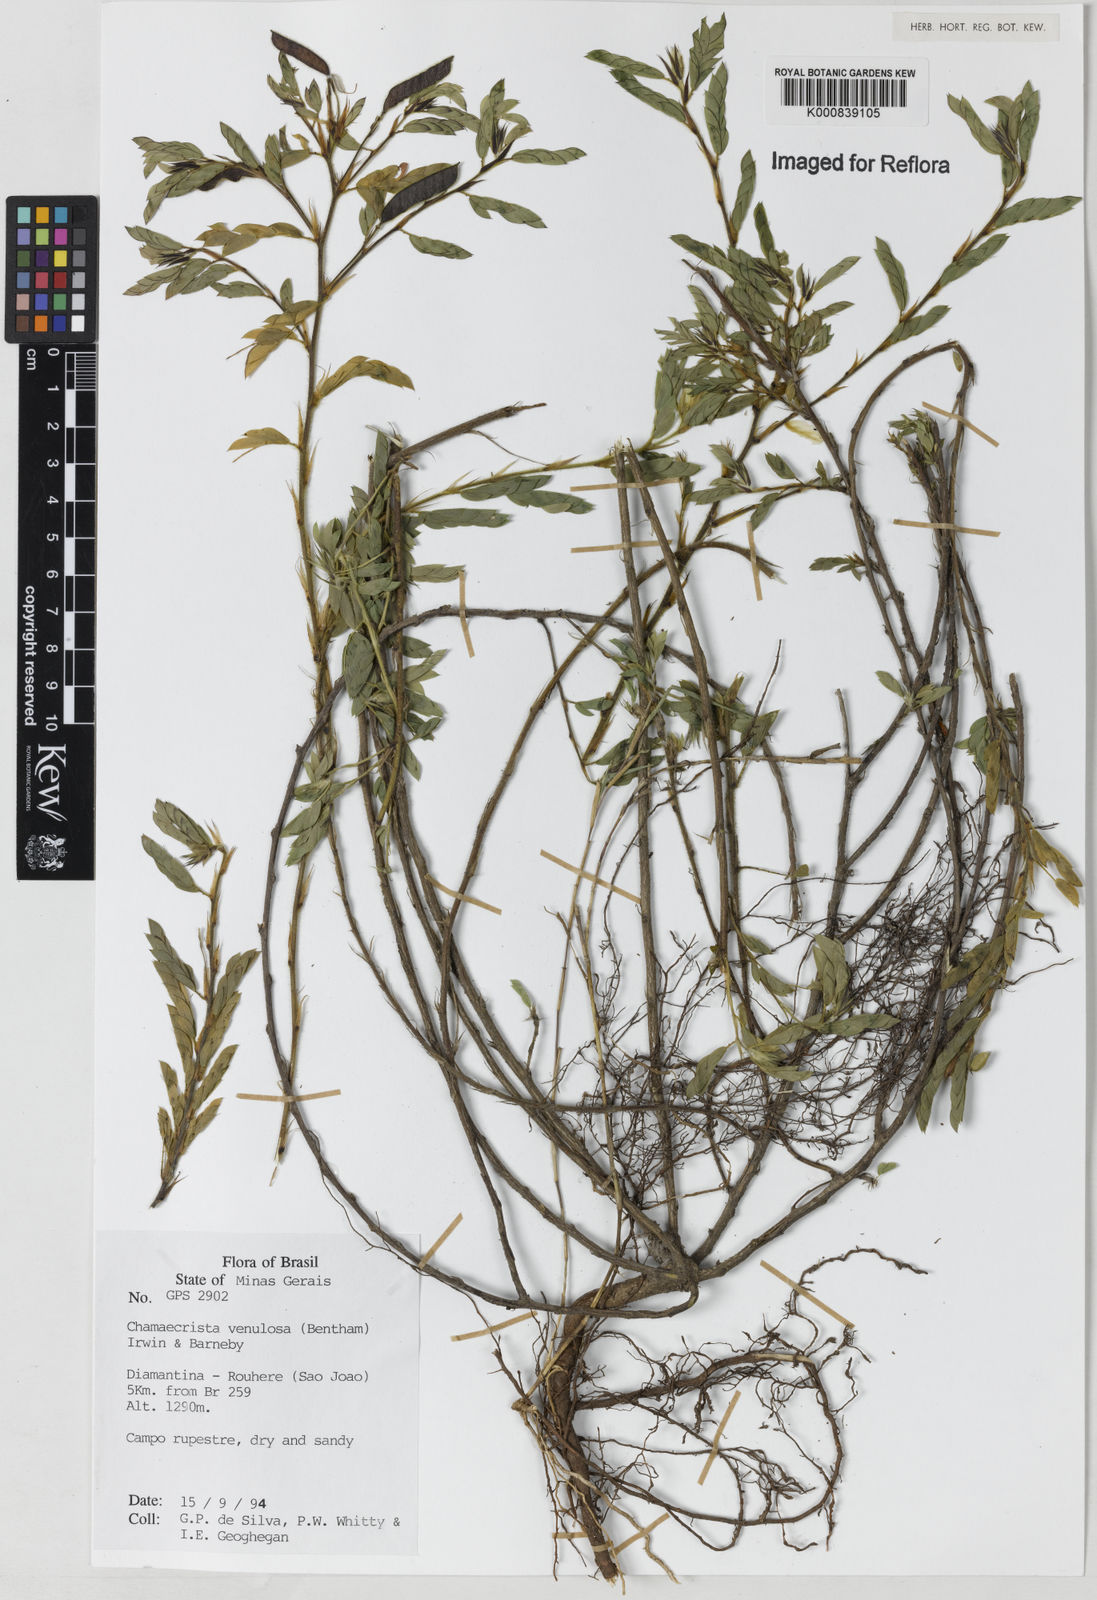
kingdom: Plantae
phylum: Tracheophyta
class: Magnoliopsida
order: Fabales
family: Fabaceae
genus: Chamaecrista
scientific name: Chamaecrista venulosa
